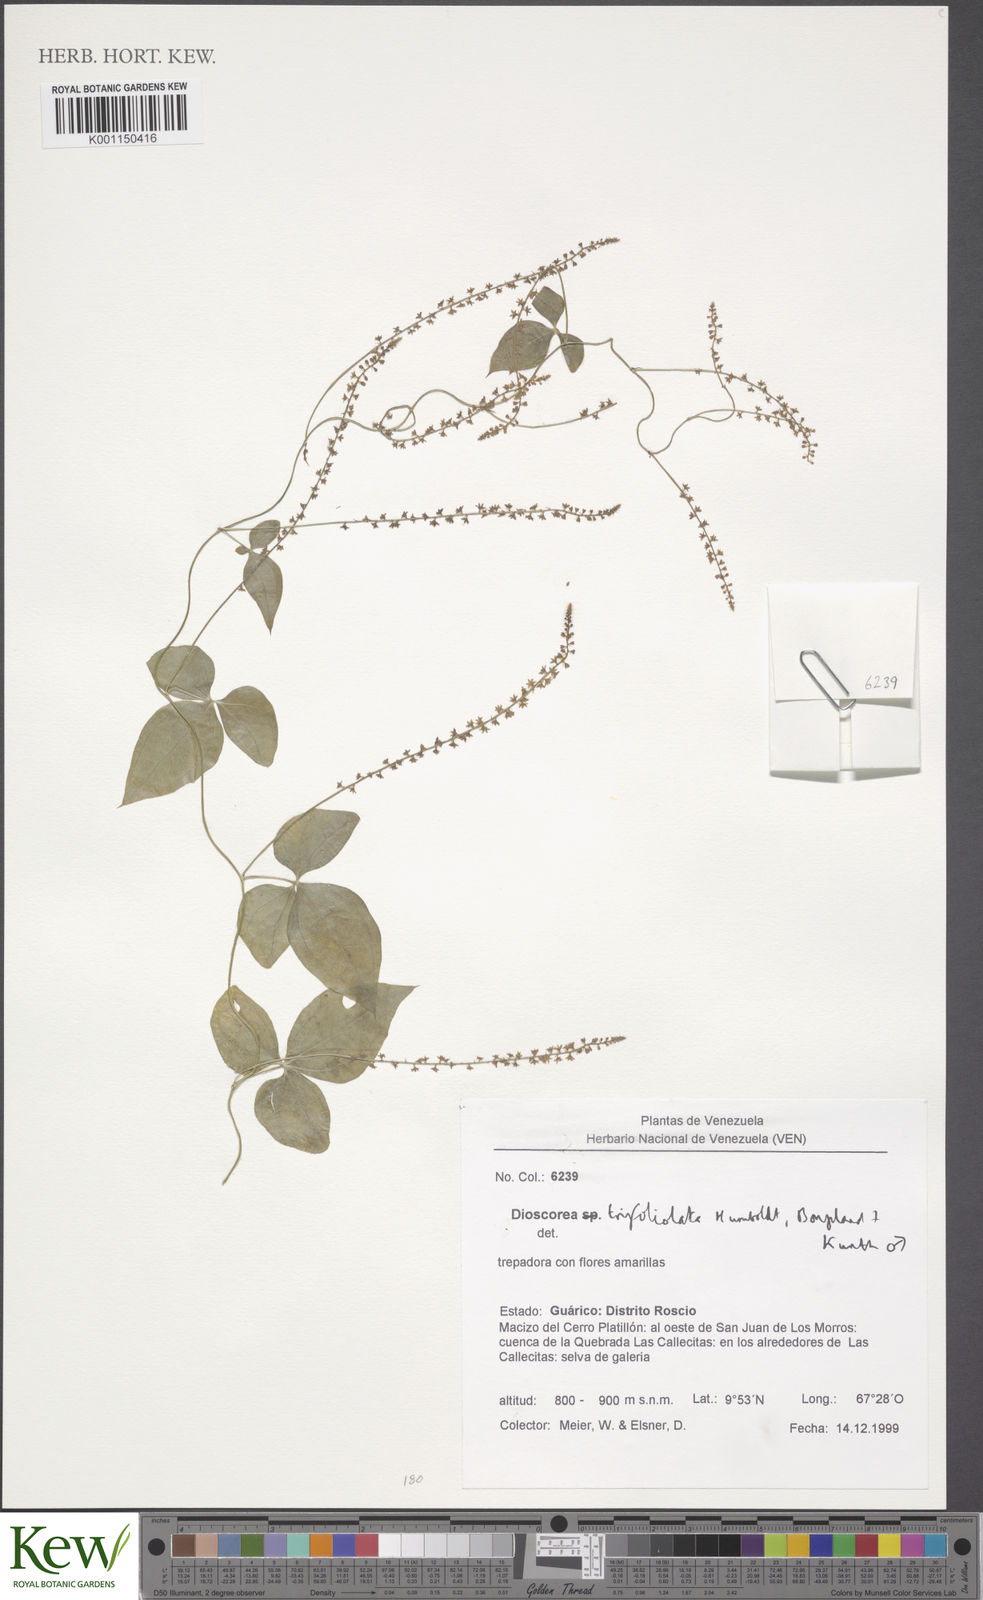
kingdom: Plantae
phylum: Tracheophyta
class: Liliopsida
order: Dioscoreales
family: Dioscoreaceae
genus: Dioscorea
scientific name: Dioscorea trifoliata
